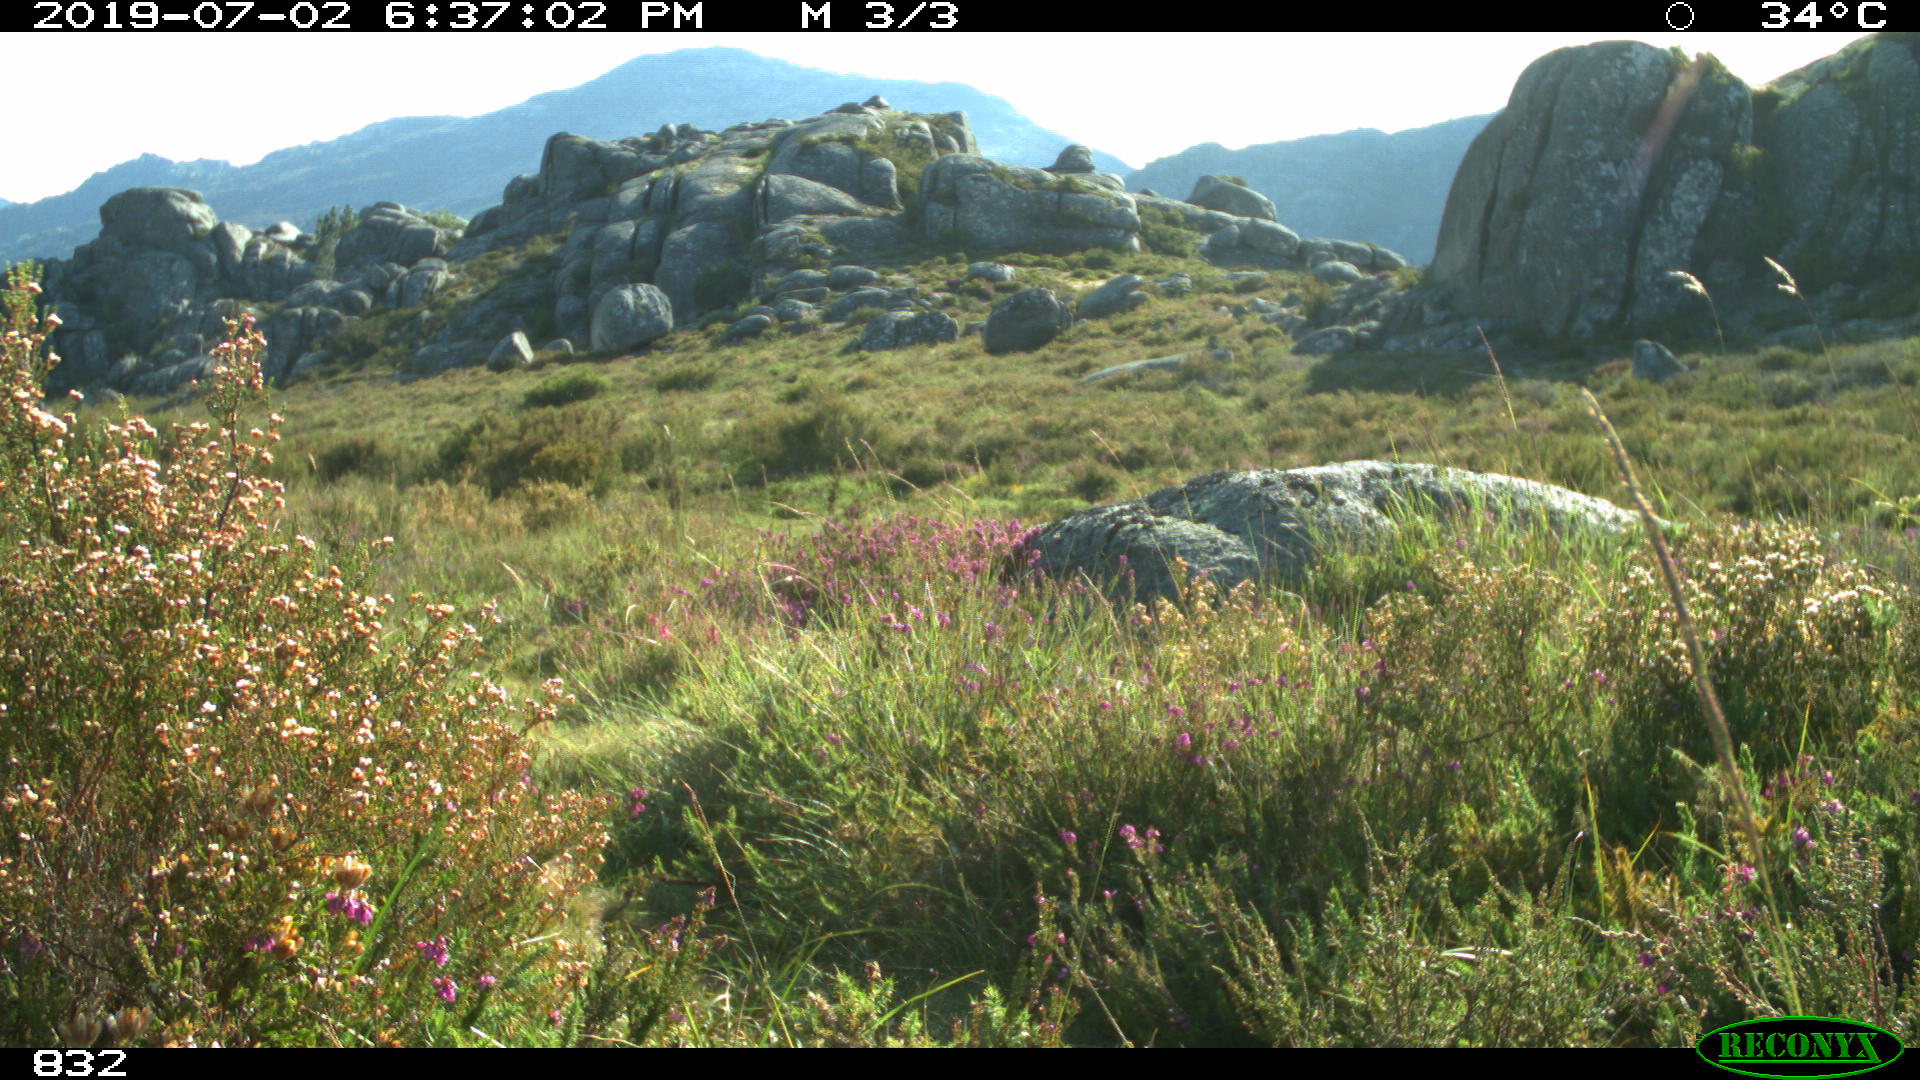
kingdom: Animalia
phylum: Chordata
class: Mammalia
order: Perissodactyla
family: Equidae
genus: Equus
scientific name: Equus caballus
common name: Horse
